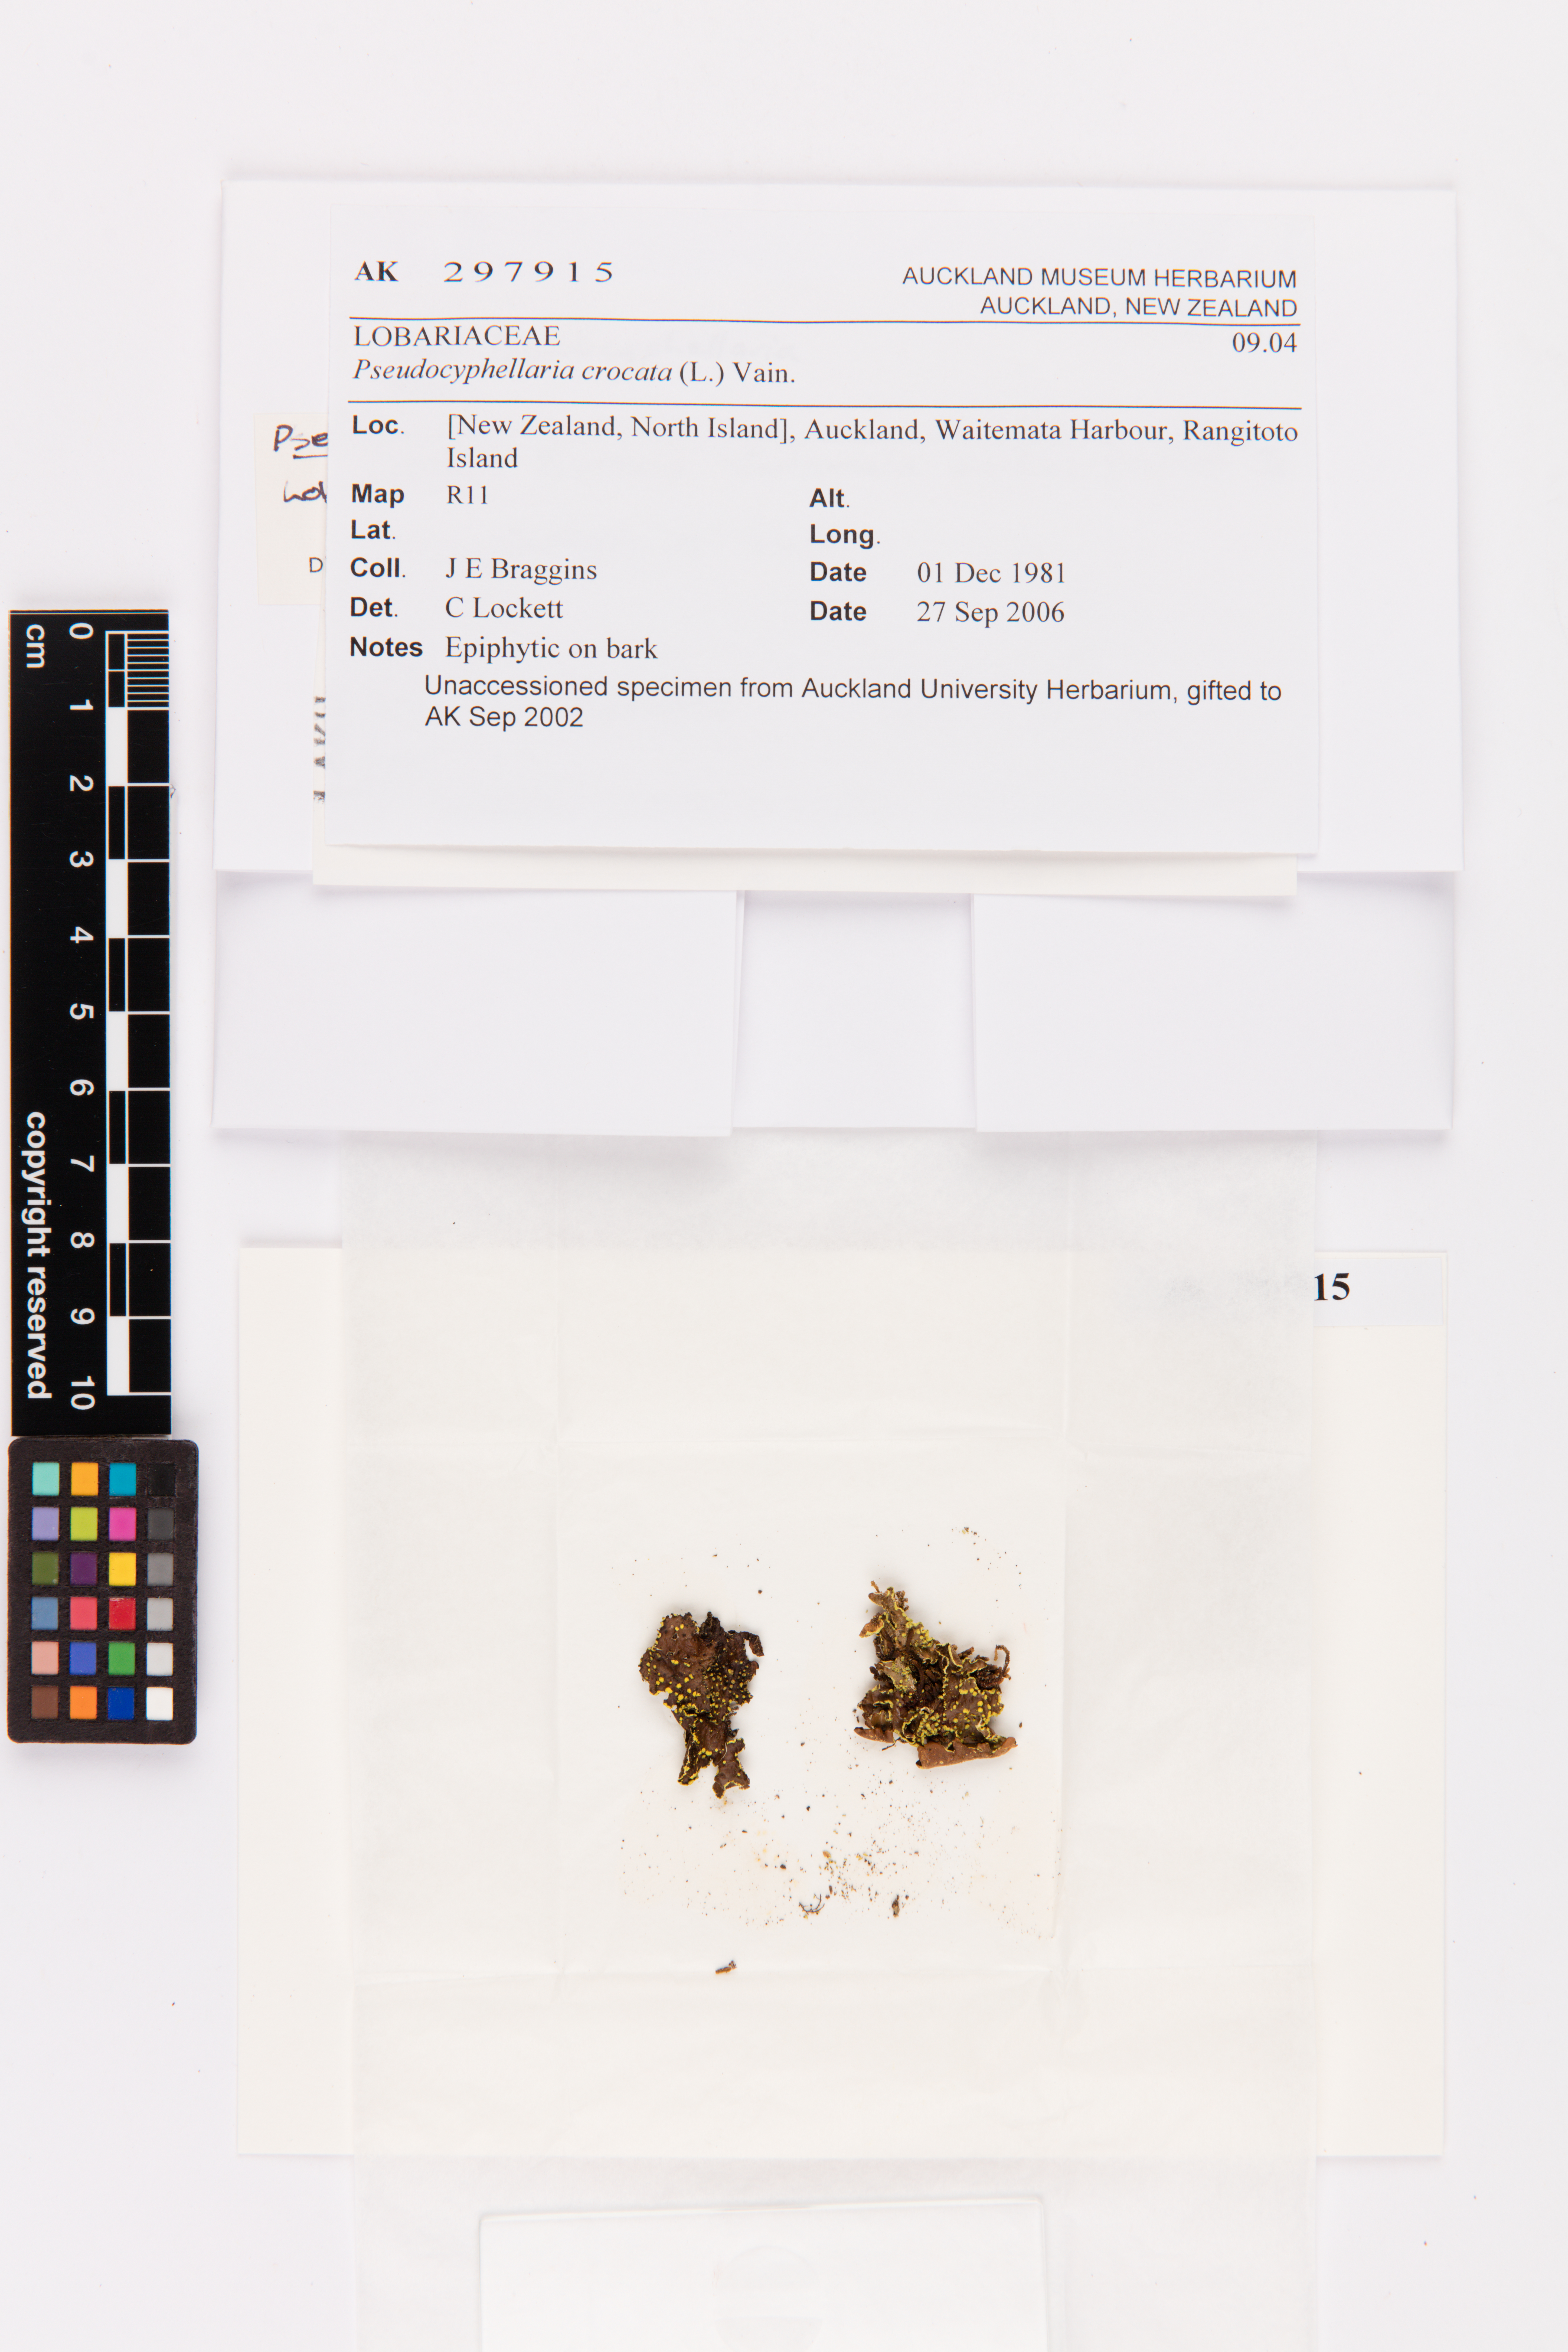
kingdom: Fungi
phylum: Ascomycota
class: Lecanoromycetes
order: Peltigerales
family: Lobariaceae
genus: Pseudocyphellaria
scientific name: Pseudocyphellaria crocata
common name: Golden specklebelly
